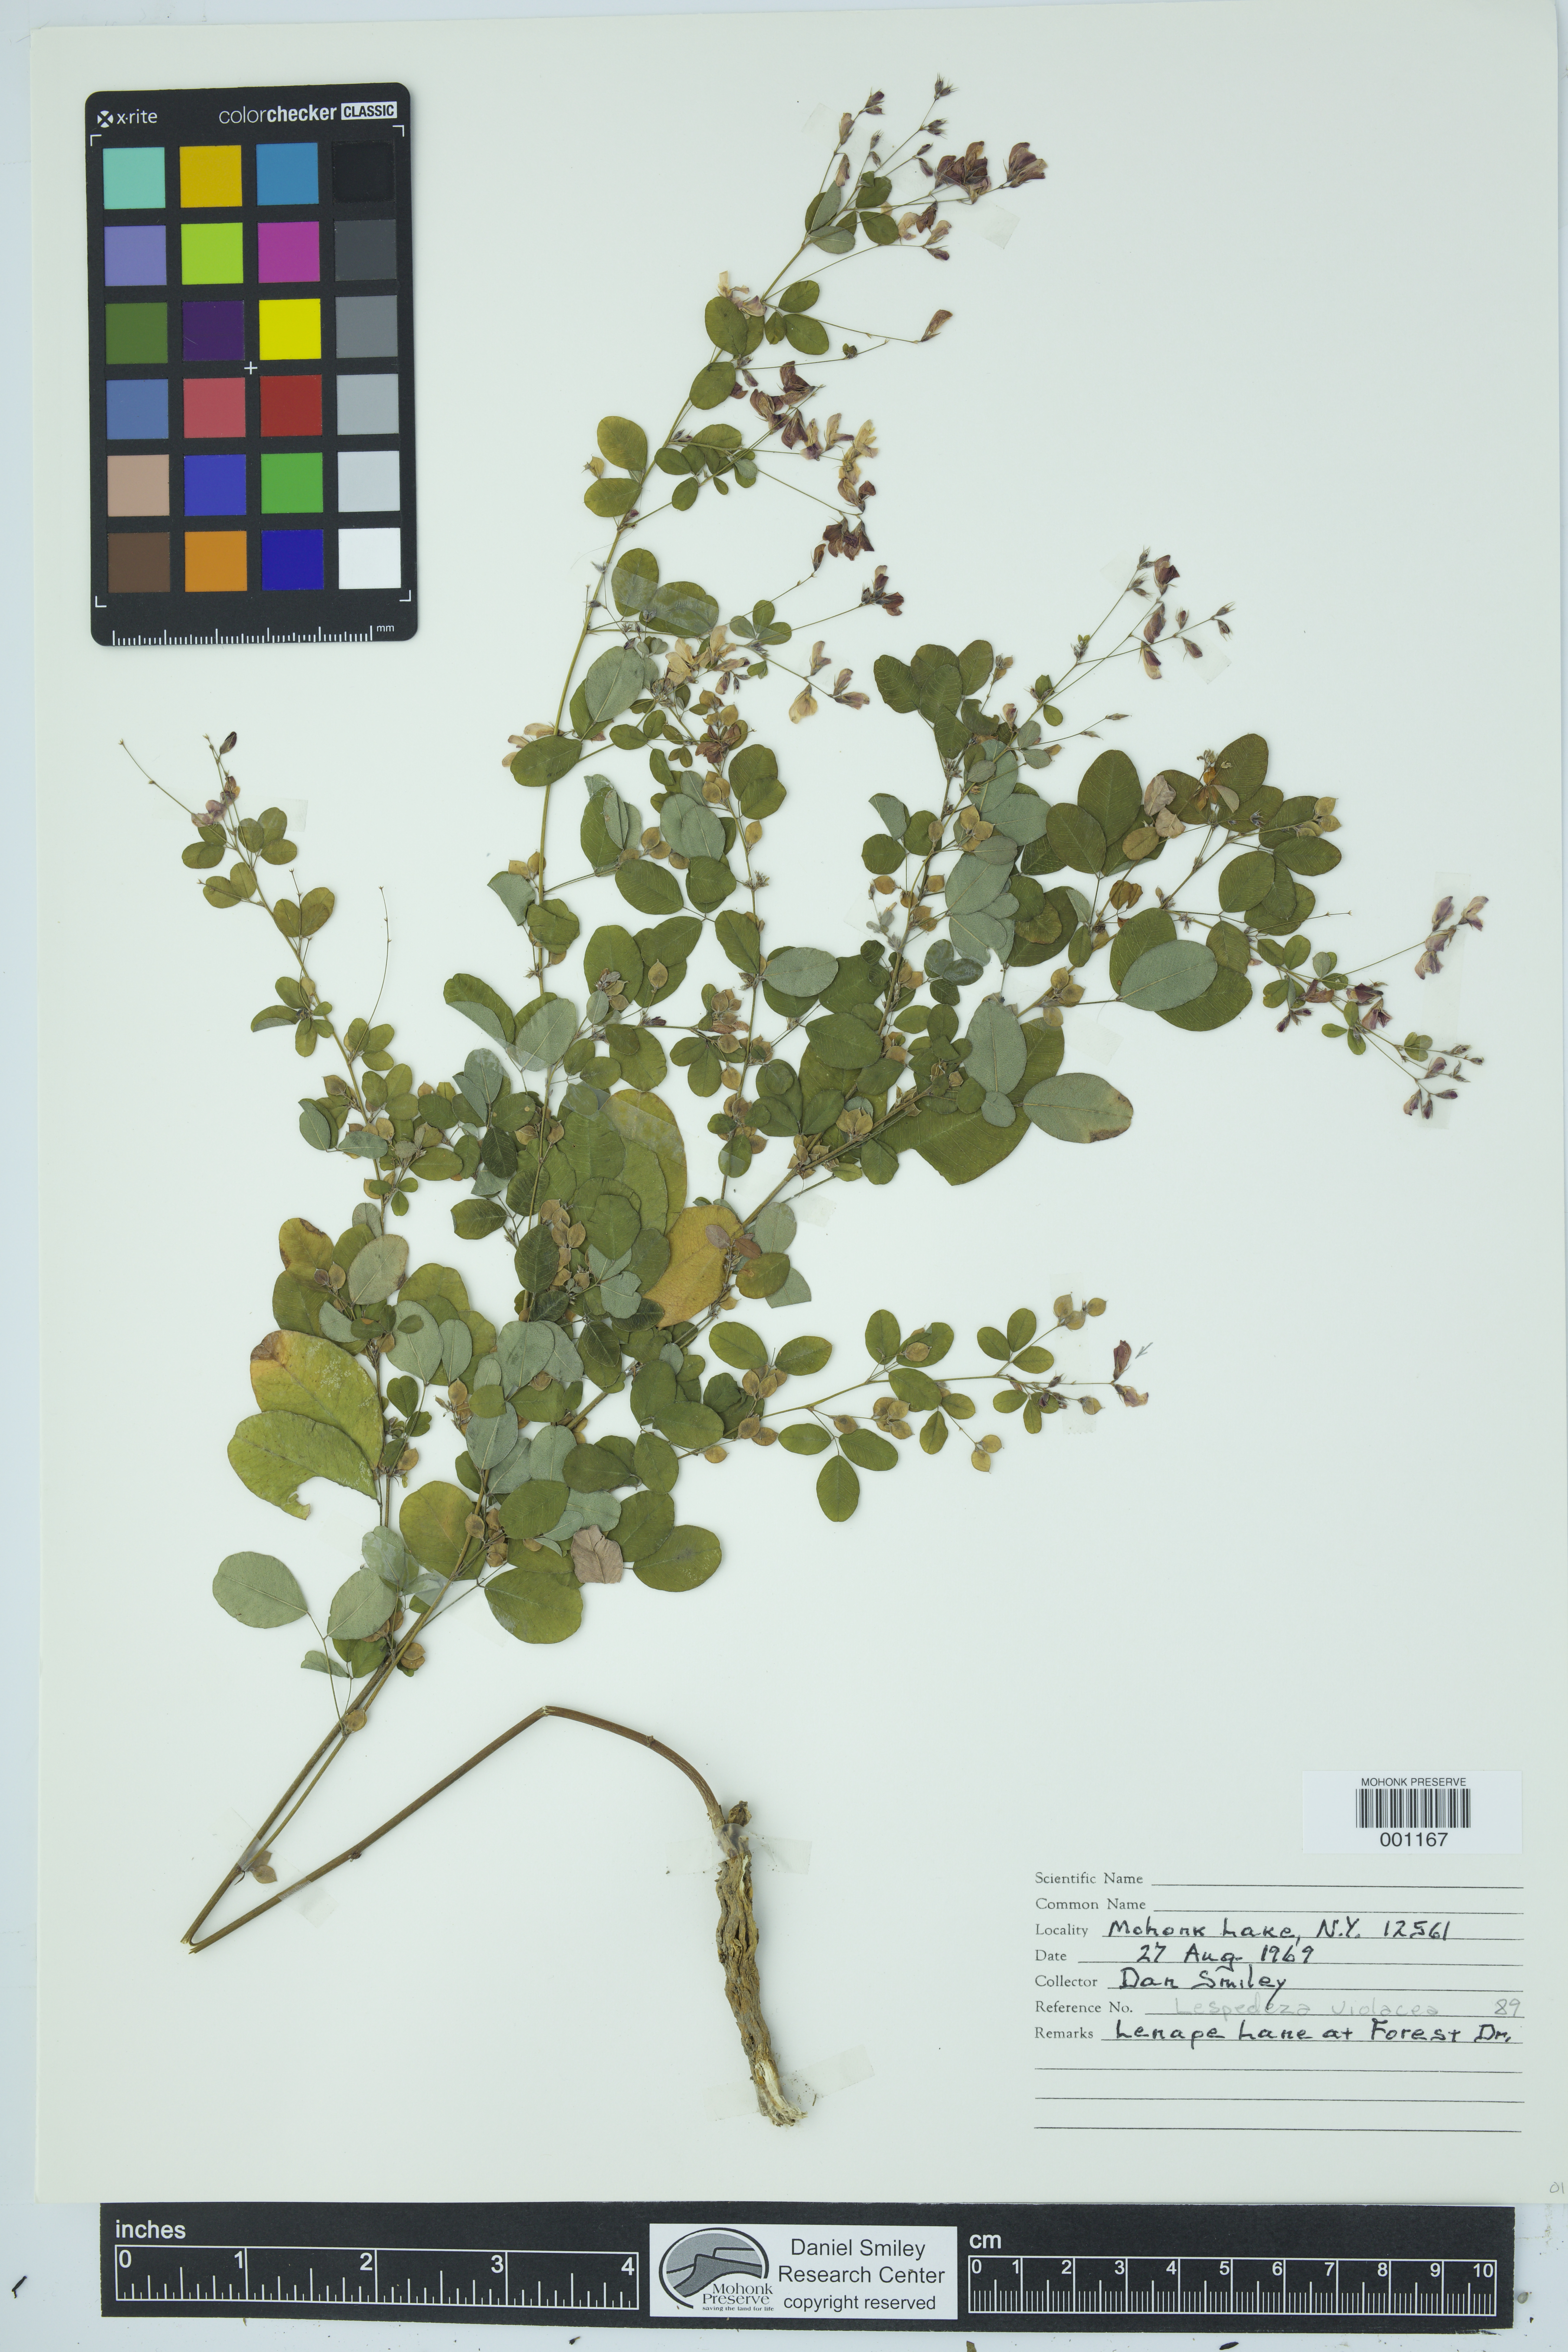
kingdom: Plantae
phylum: Tracheophyta
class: Magnoliopsida
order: Fabales
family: Fabaceae
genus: Lespedeza
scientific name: Lespedeza violacea
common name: Wand bush-clover
